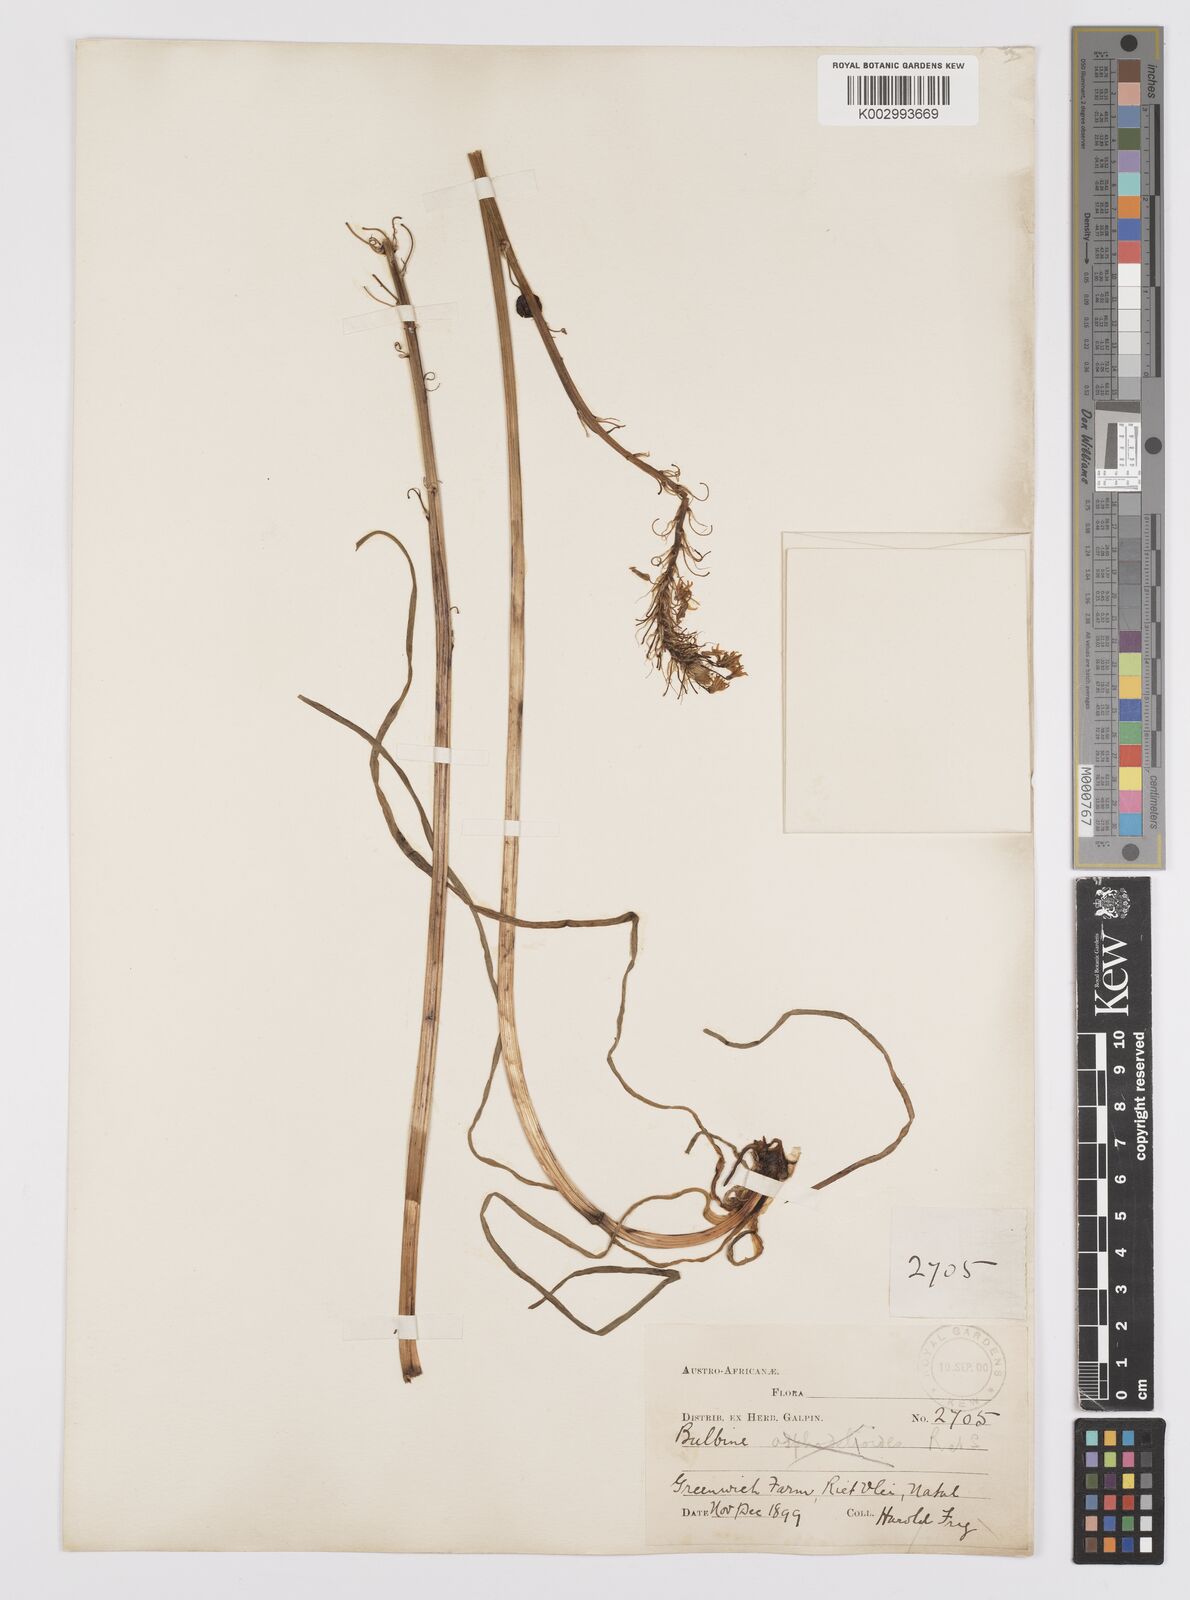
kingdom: Plantae
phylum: Tracheophyta
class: Liliopsida
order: Asparagales
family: Asphodelaceae
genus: Bulbine
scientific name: Bulbine inflata
